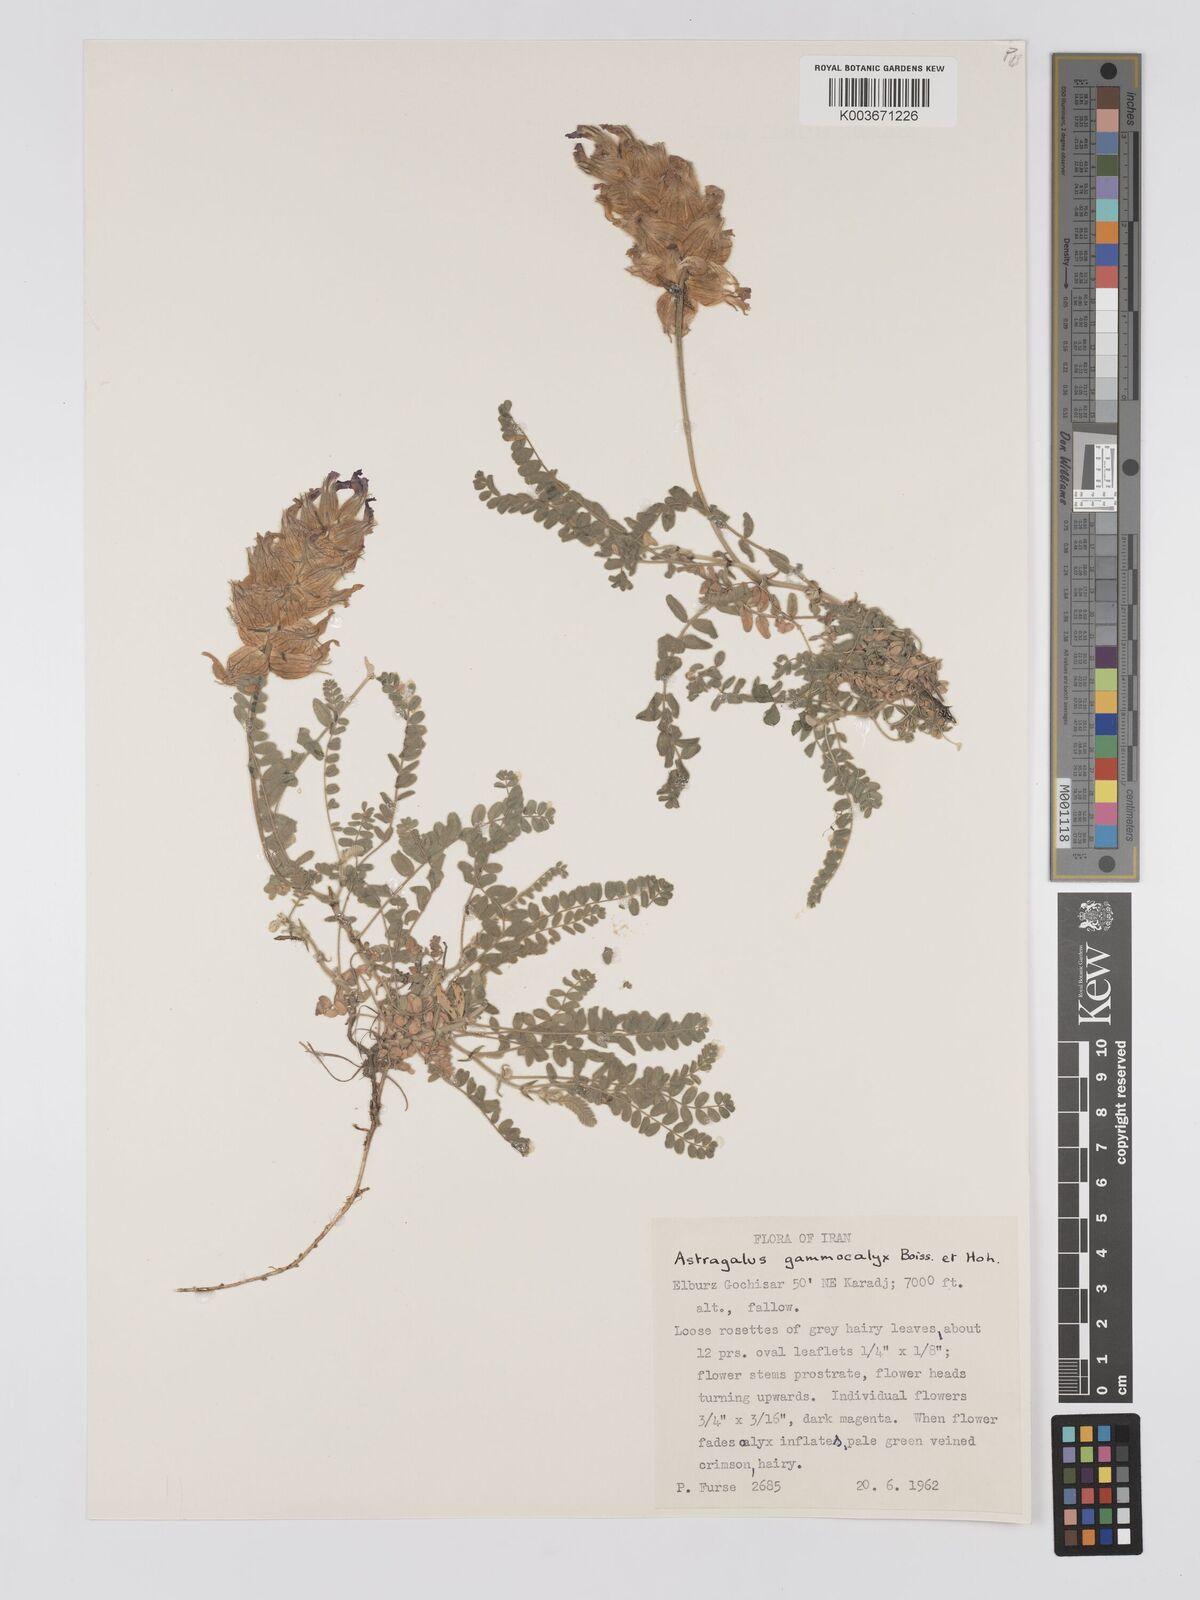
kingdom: Plantae
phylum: Tracheophyta
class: Magnoliopsida
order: Fabales
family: Fabaceae
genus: Astragalus
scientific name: Astragalus lineatus
